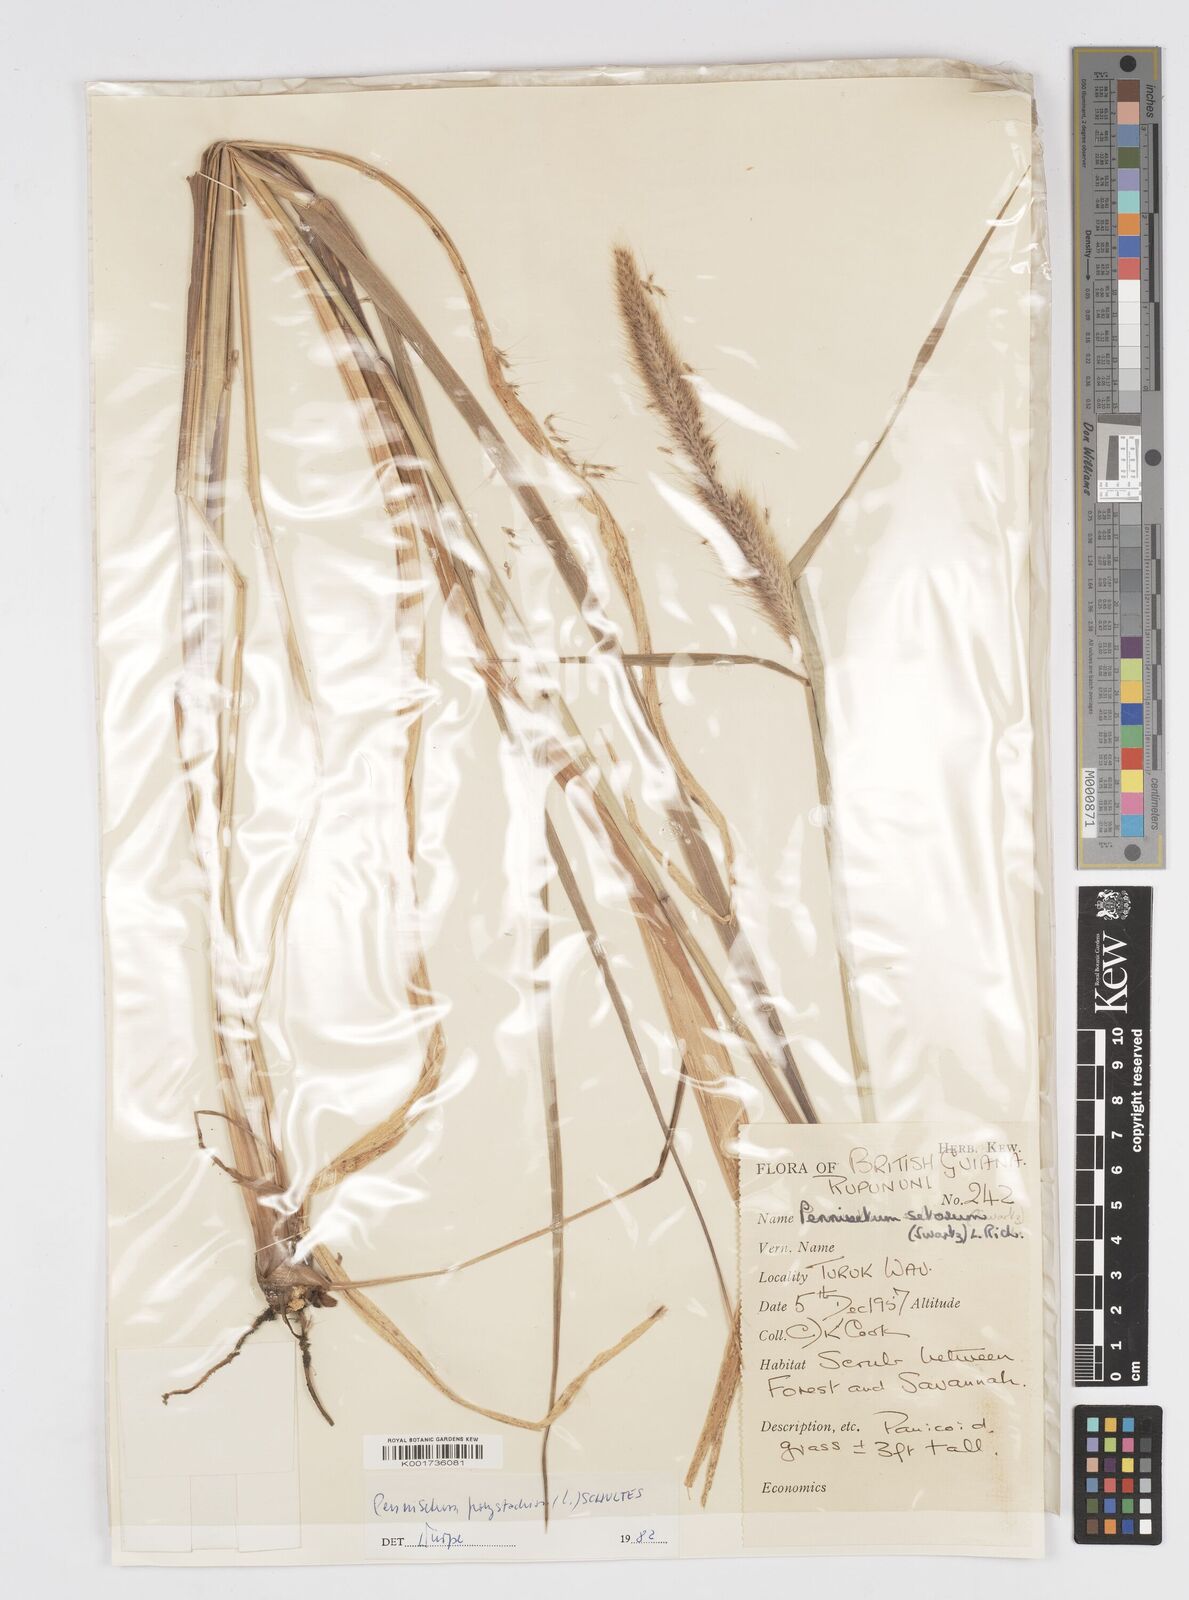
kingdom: Plantae
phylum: Tracheophyta
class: Liliopsida
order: Poales
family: Poaceae
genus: Cenchrus
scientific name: Cenchrus setosus
